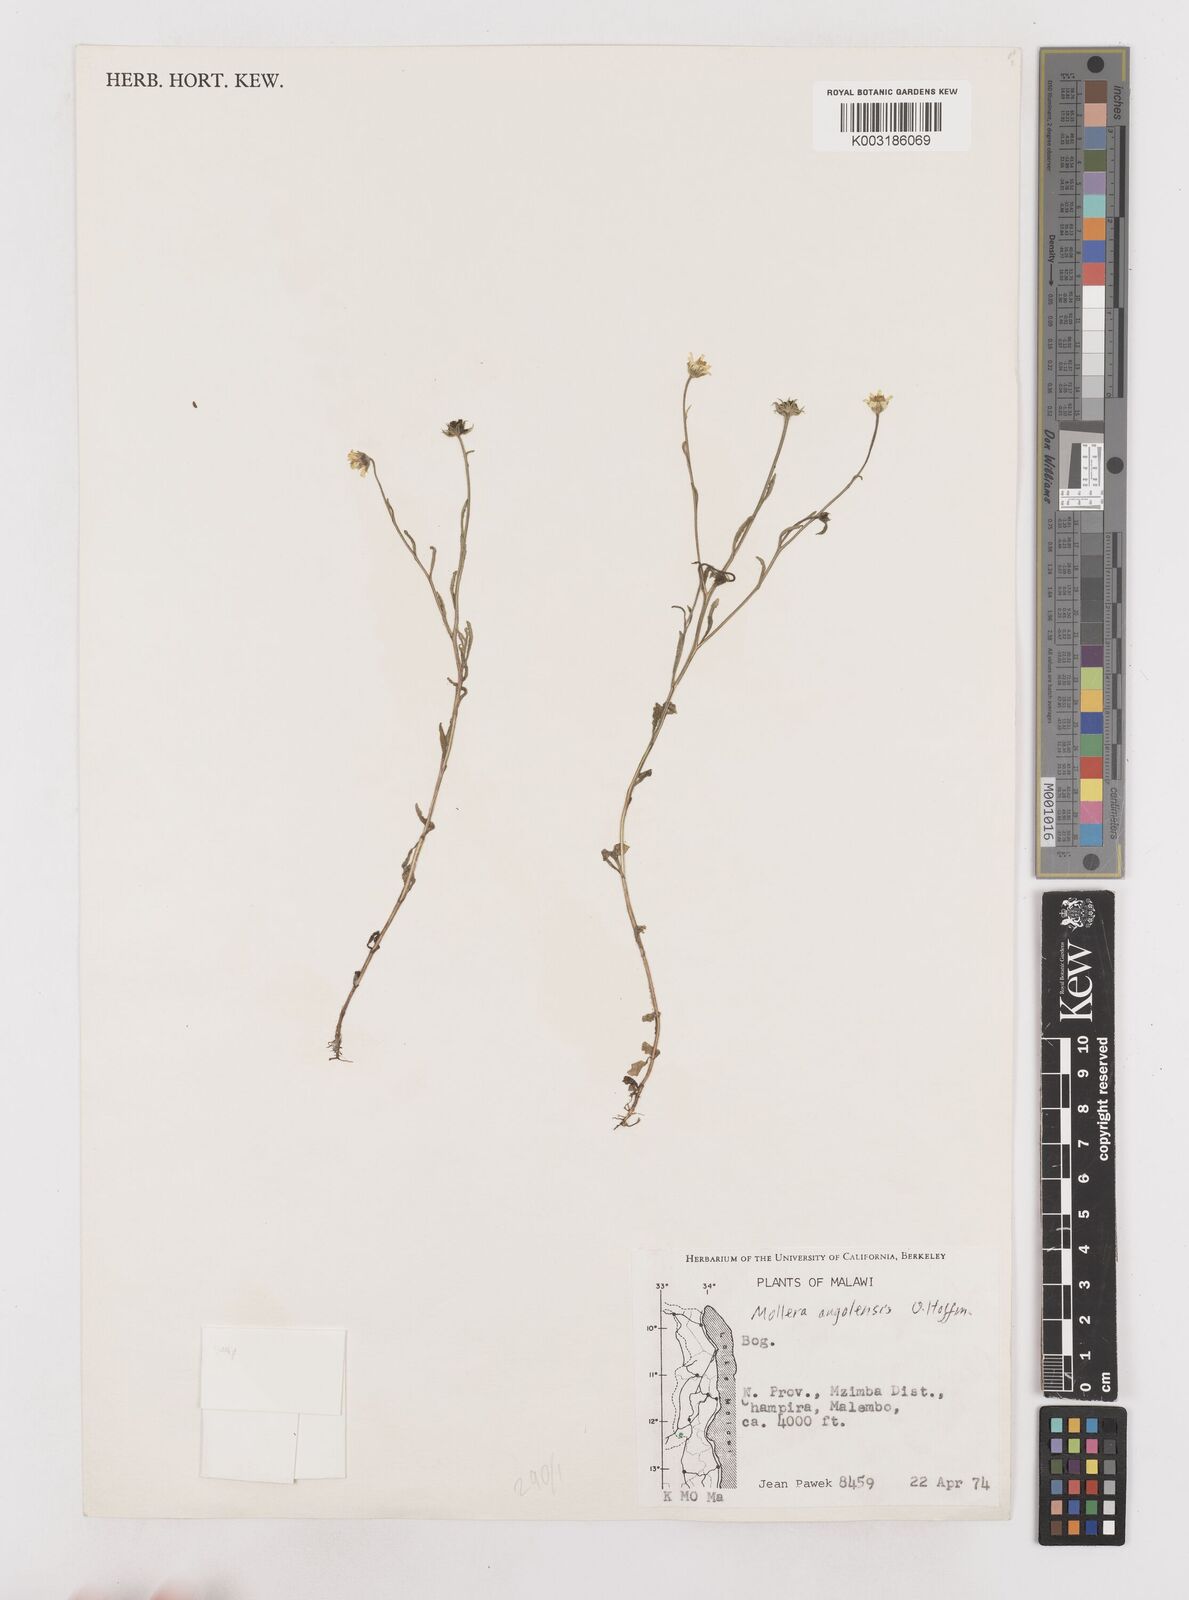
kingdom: Plantae
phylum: Tracheophyta
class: Magnoliopsida
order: Asterales
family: Asteraceae
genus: Calostephane
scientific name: Calostephane angolensis
